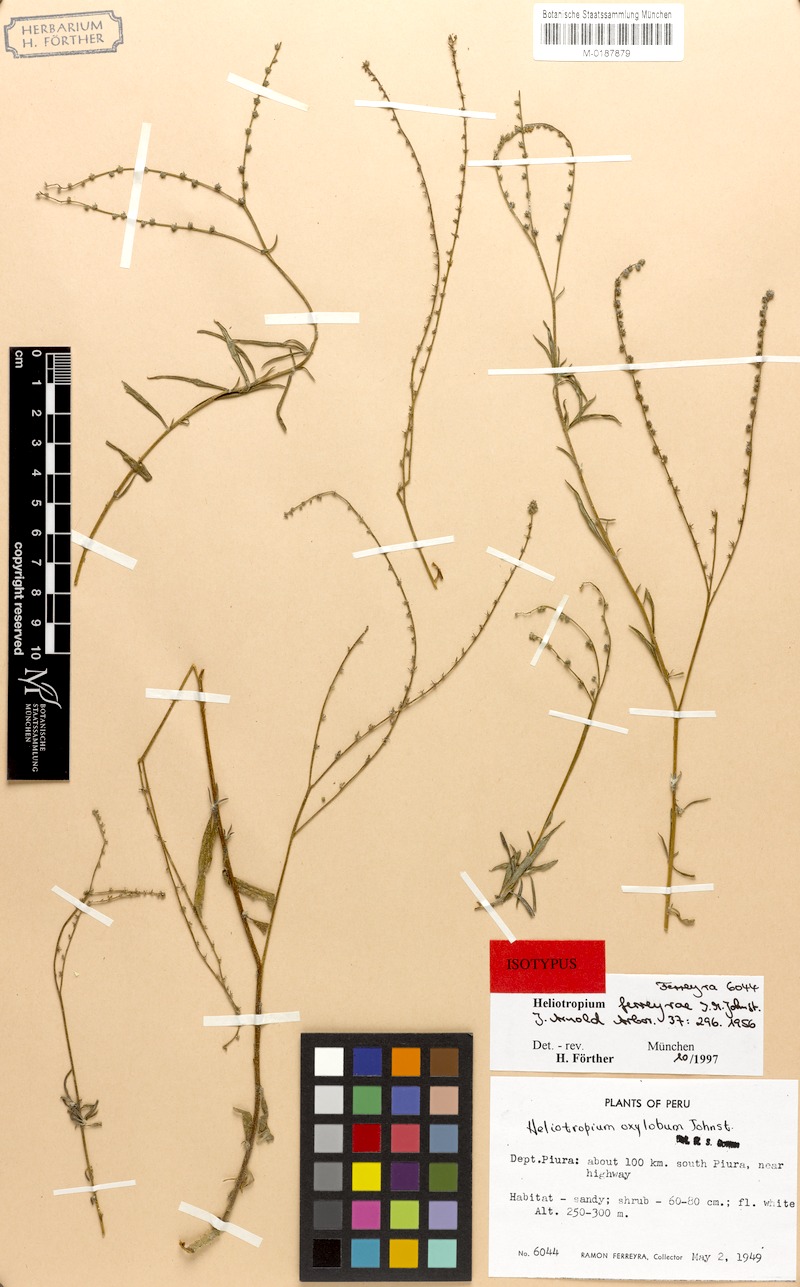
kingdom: Plantae
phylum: Tracheophyta
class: Magnoliopsida
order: Boraginales
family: Heliotropiaceae
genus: Euploca
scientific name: Euploca ferreyrae
